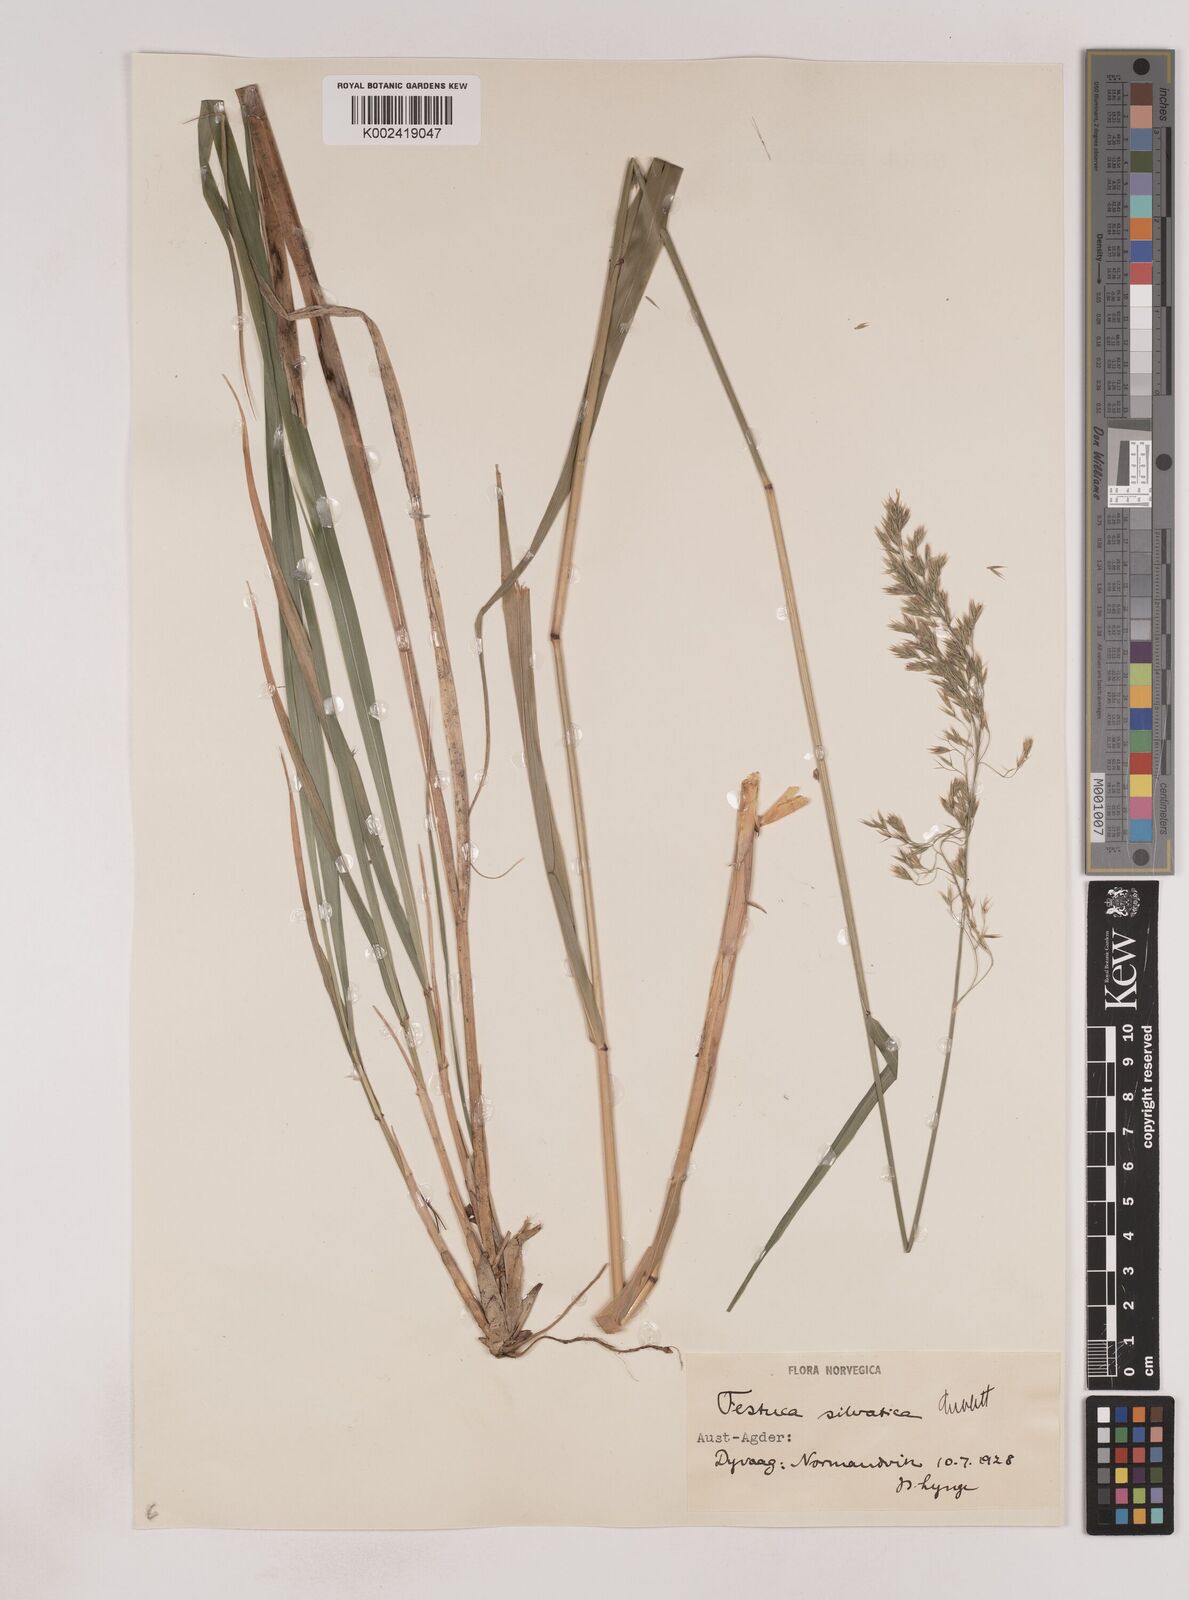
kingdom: Plantae
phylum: Tracheophyta
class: Liliopsida
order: Poales
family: Poaceae
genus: Festuca
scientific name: Festuca drymeja
